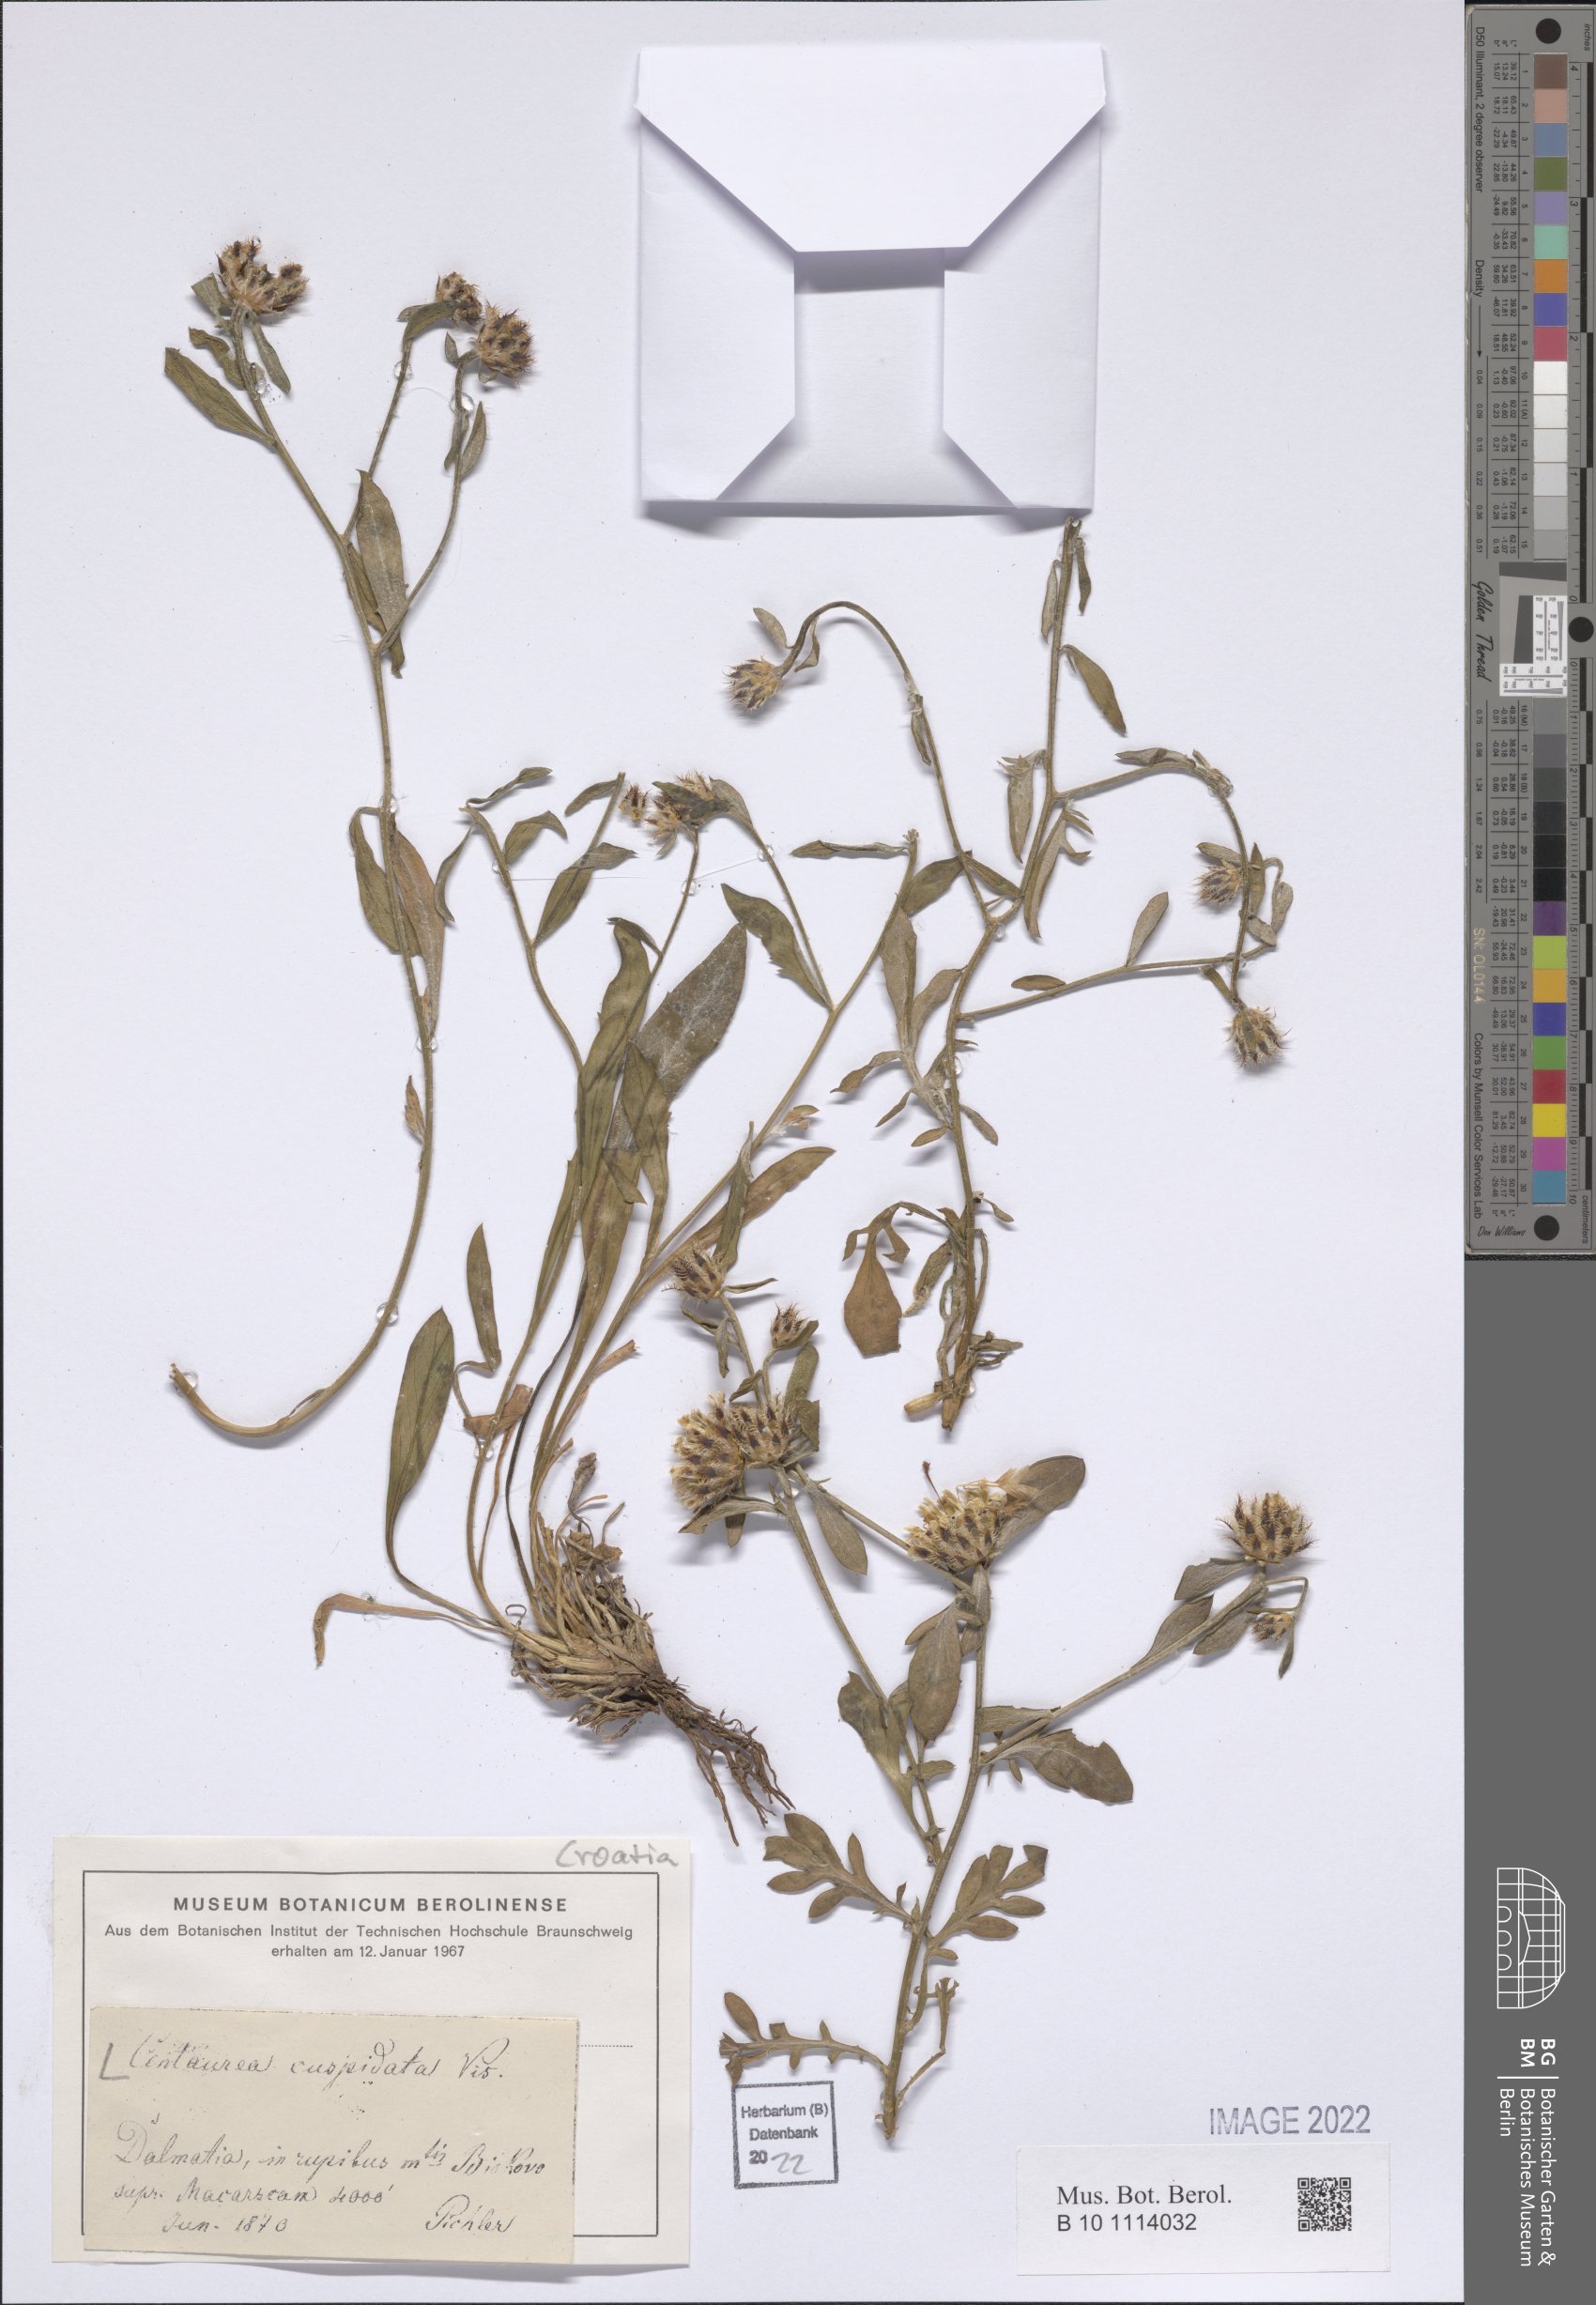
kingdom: Plantae
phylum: Tracheophyta
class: Magnoliopsida
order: Asterales
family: Asteraceae
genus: Centaurea
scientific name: Centaurea cuspidata
